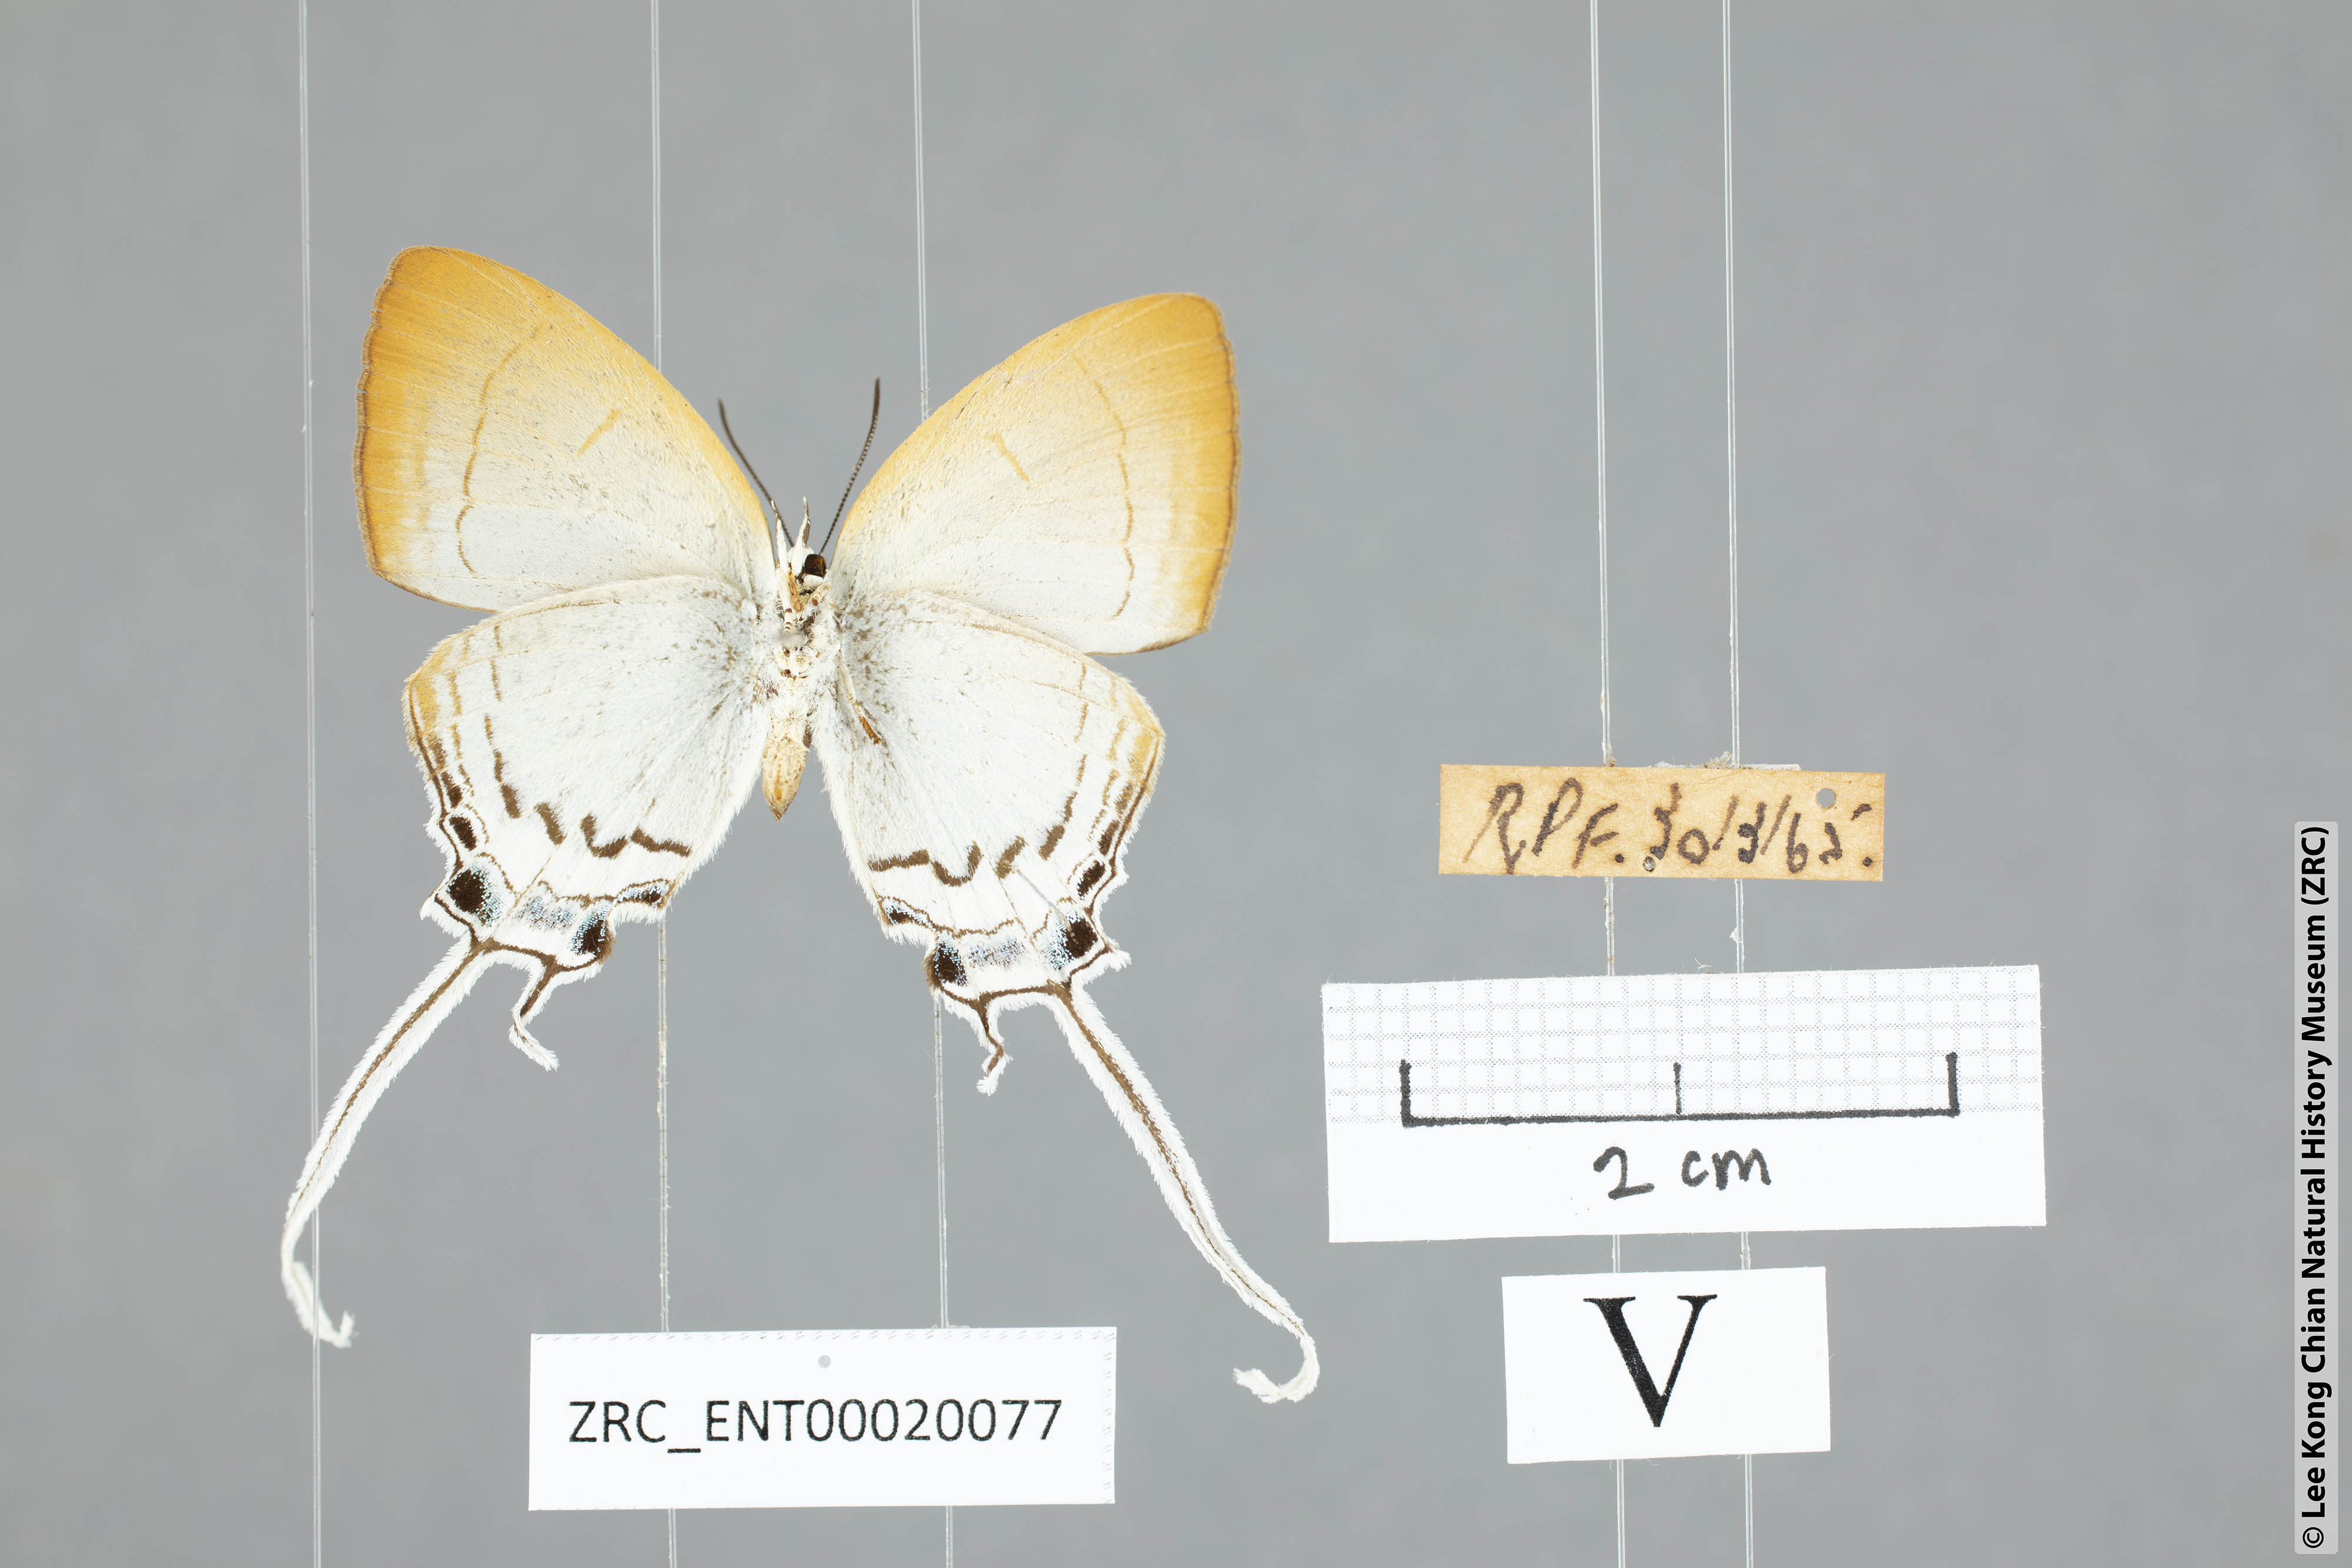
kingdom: Animalia
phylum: Arthropoda
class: Insecta
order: Lepidoptera
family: Lycaenidae
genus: Cheritra
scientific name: Cheritra freja
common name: Common imperial
